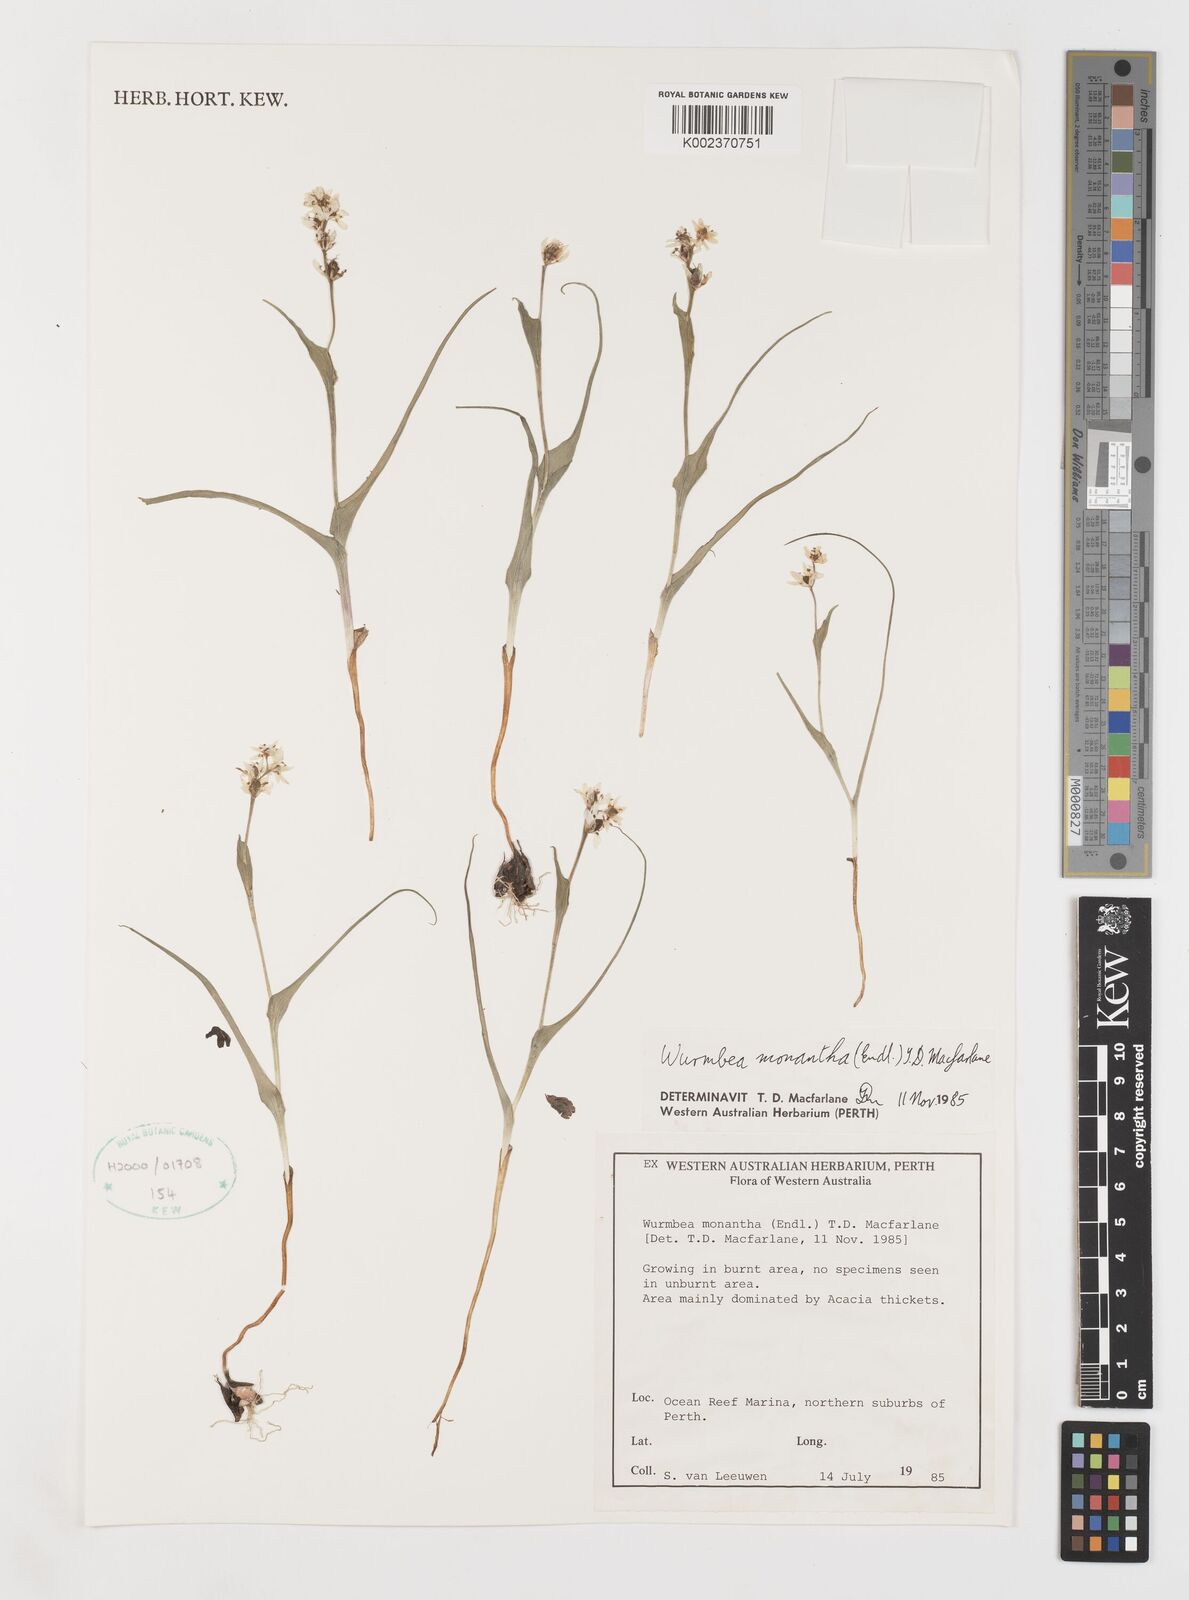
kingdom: Plantae
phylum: Tracheophyta
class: Liliopsida
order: Liliales
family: Colchicaceae
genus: Wurmbea
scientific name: Wurmbea monantha
